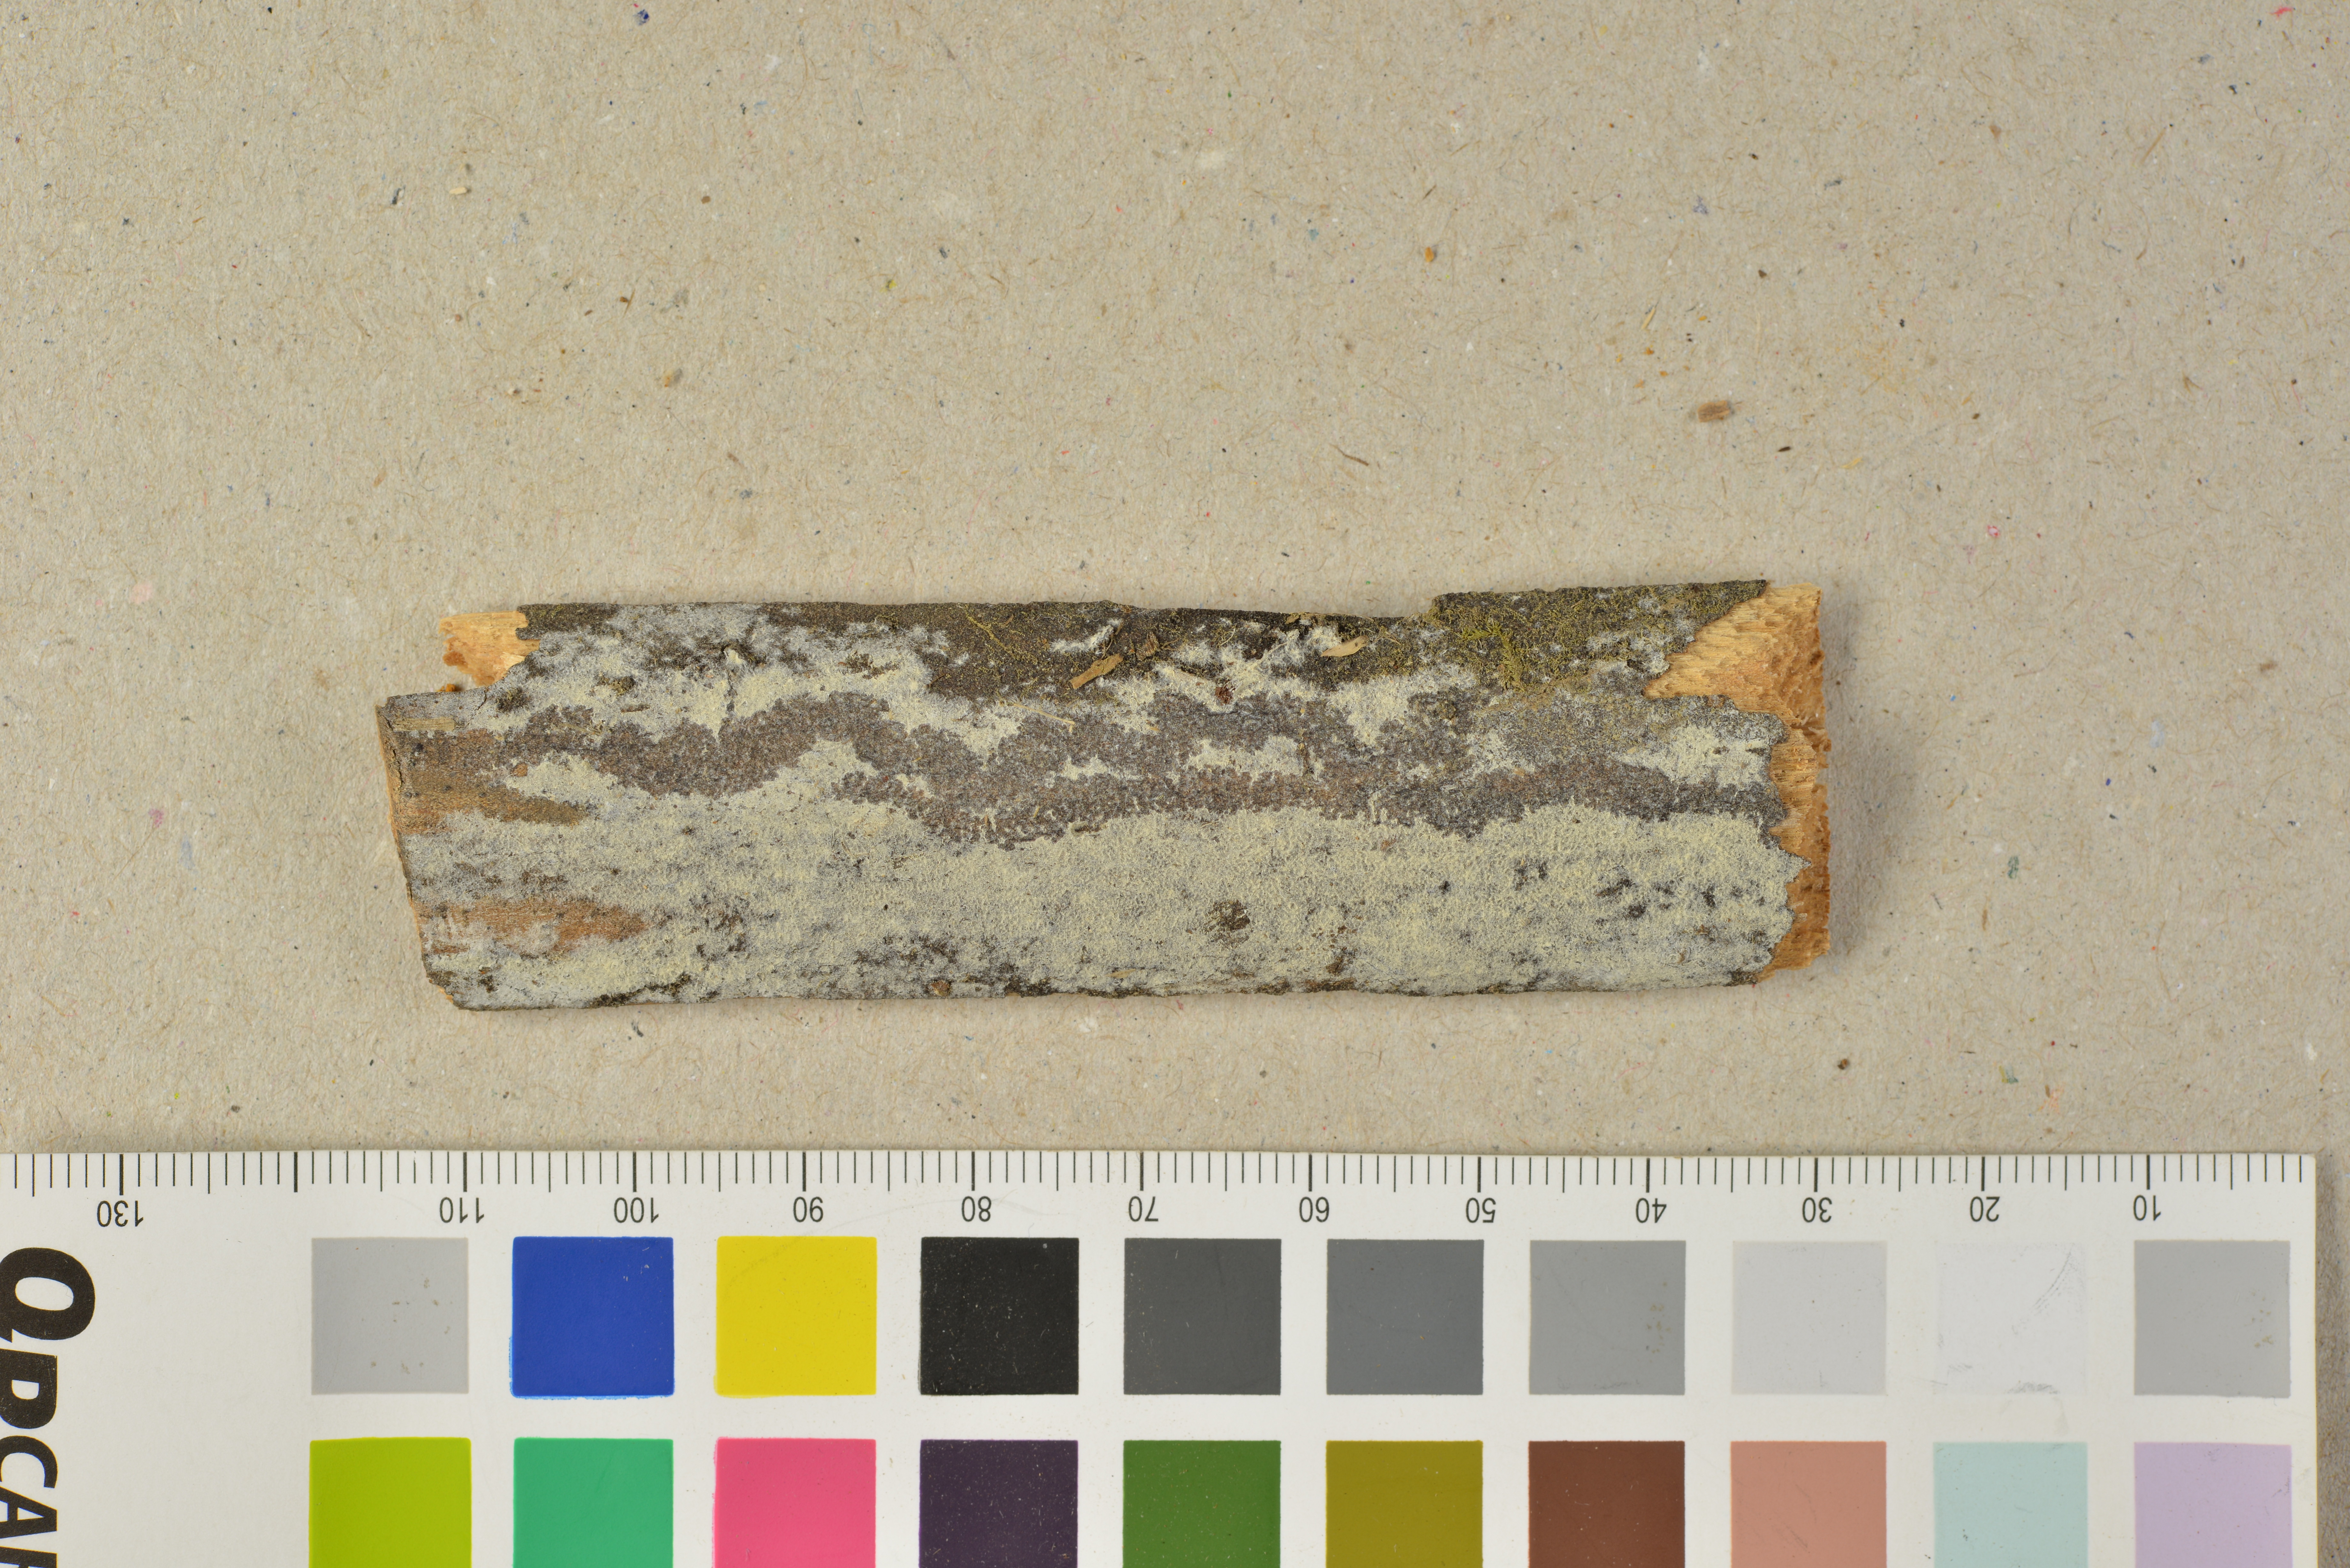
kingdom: Fungi
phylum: Basidiomycota
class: Agaricomycetes
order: Atheliales
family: Atheliaceae
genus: Athelopsis
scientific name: Athelopsis curvispora
